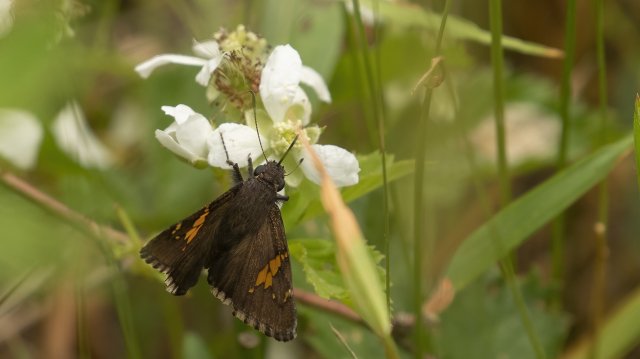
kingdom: Animalia
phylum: Arthropoda
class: Insecta
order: Lepidoptera
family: Hesperiidae
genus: Achalarus
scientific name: Achalarus lyciades
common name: Hoary Edge
